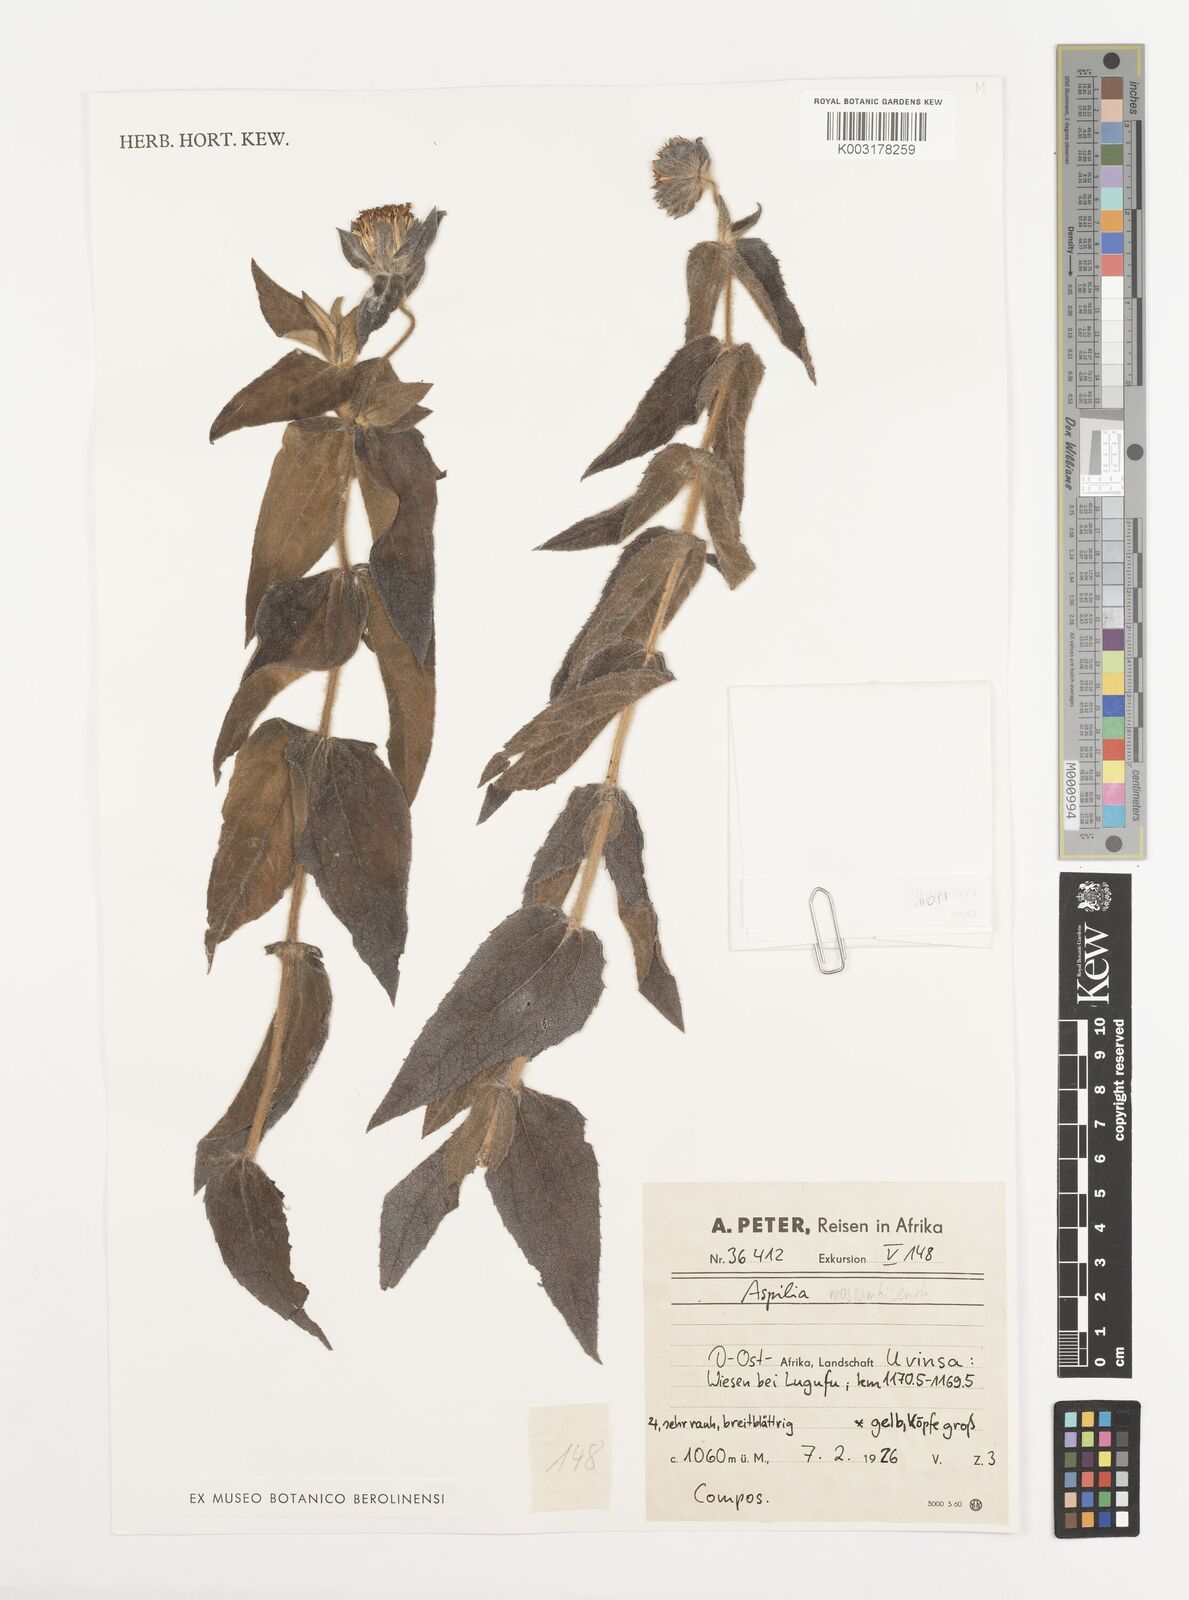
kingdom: Plantae
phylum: Tracheophyta
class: Magnoliopsida
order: Asterales
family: Asteraceae
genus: Aspilia
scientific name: Aspilia mossambicensis
